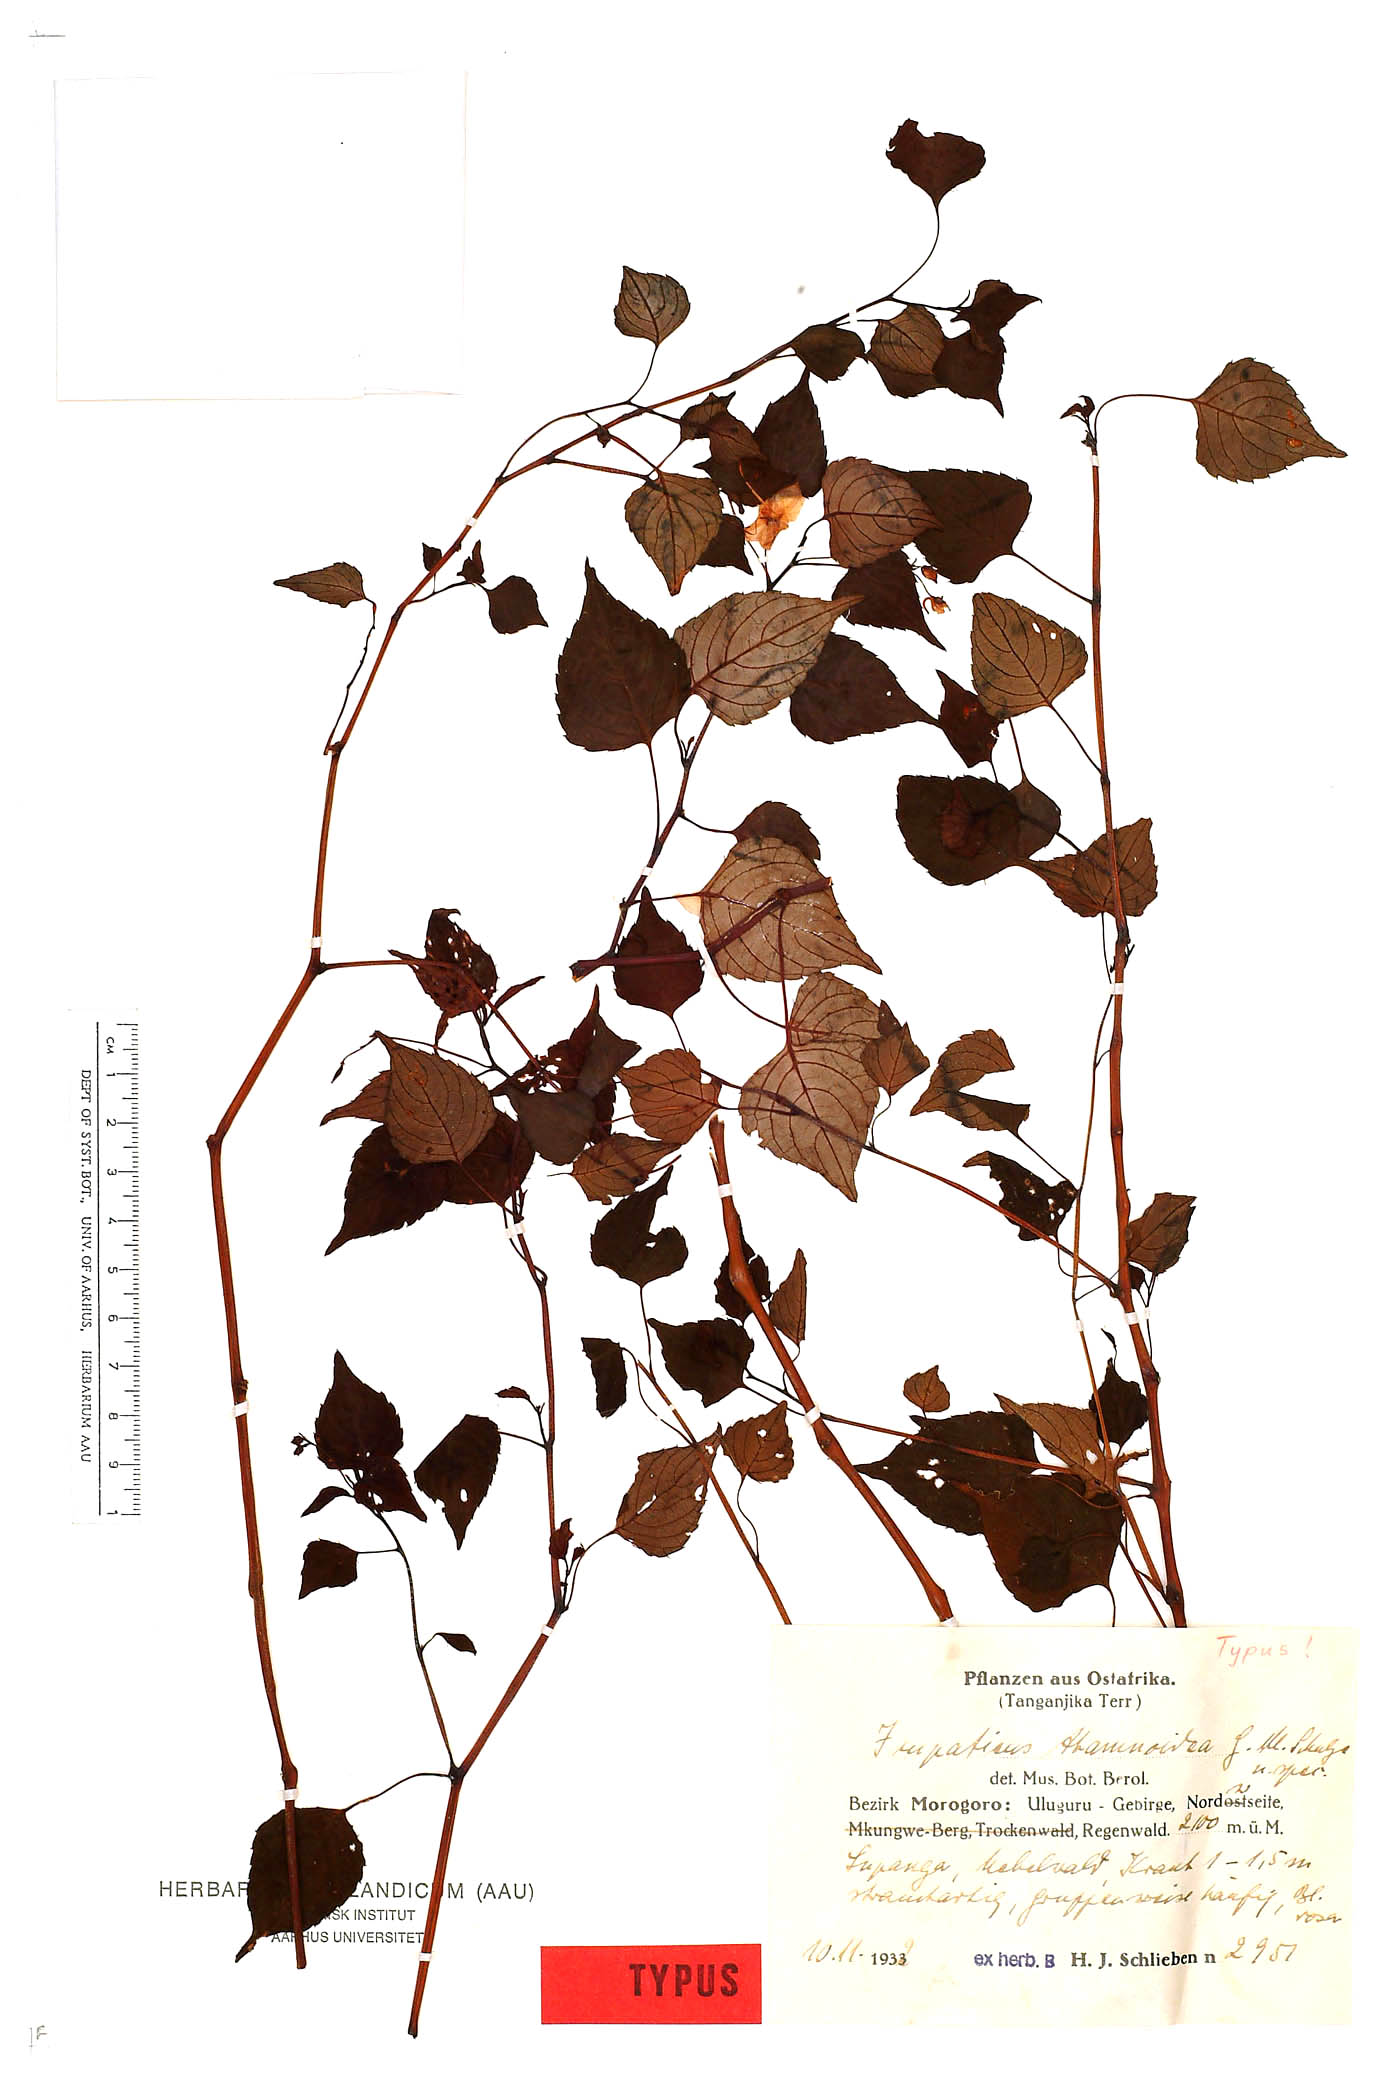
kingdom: Plantae
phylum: Tracheophyta
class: Magnoliopsida
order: Ericales
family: Balsaminaceae
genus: Impatiens
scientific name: Impatiens thamnoidea
